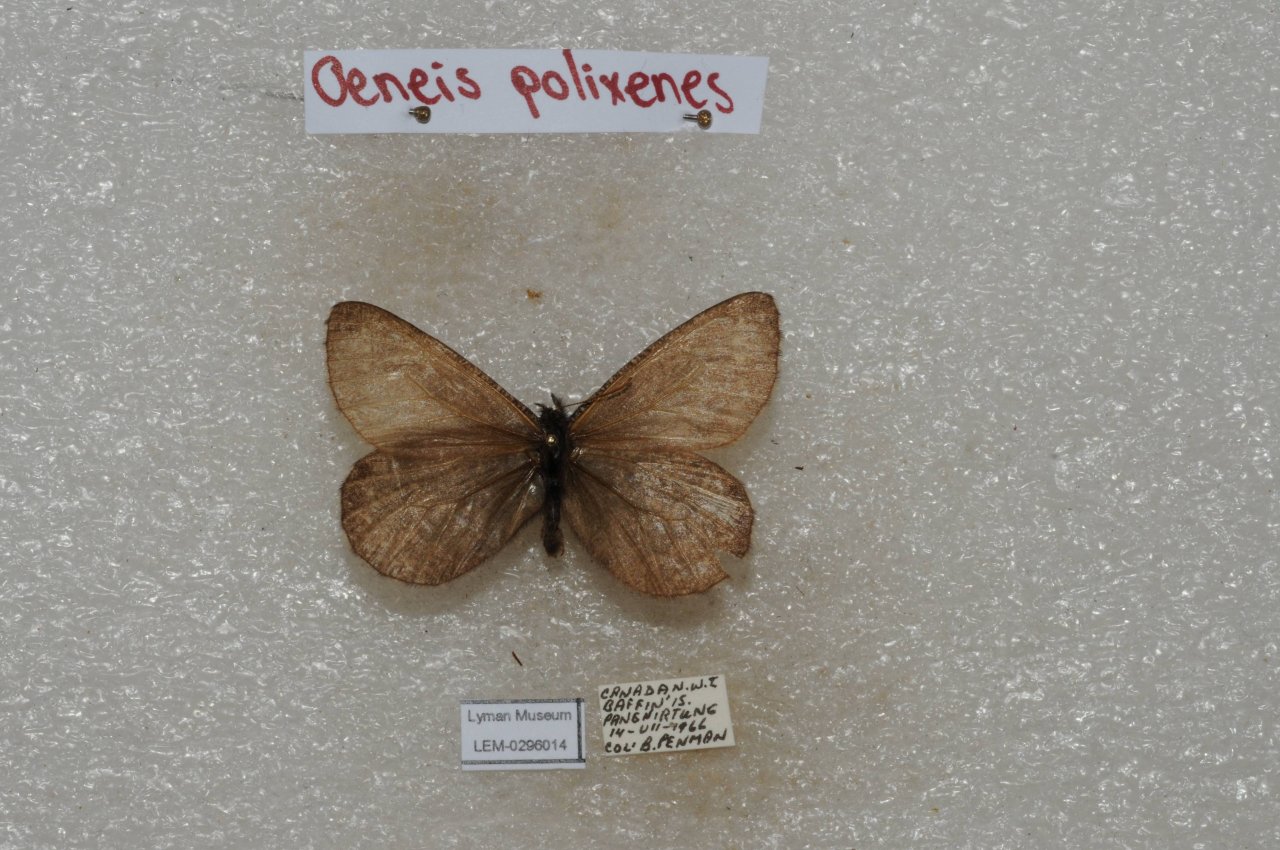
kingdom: Animalia
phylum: Arthropoda
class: Insecta
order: Lepidoptera
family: Nymphalidae
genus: Oeneis
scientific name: Oeneis bore
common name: Polixenes Arctic
